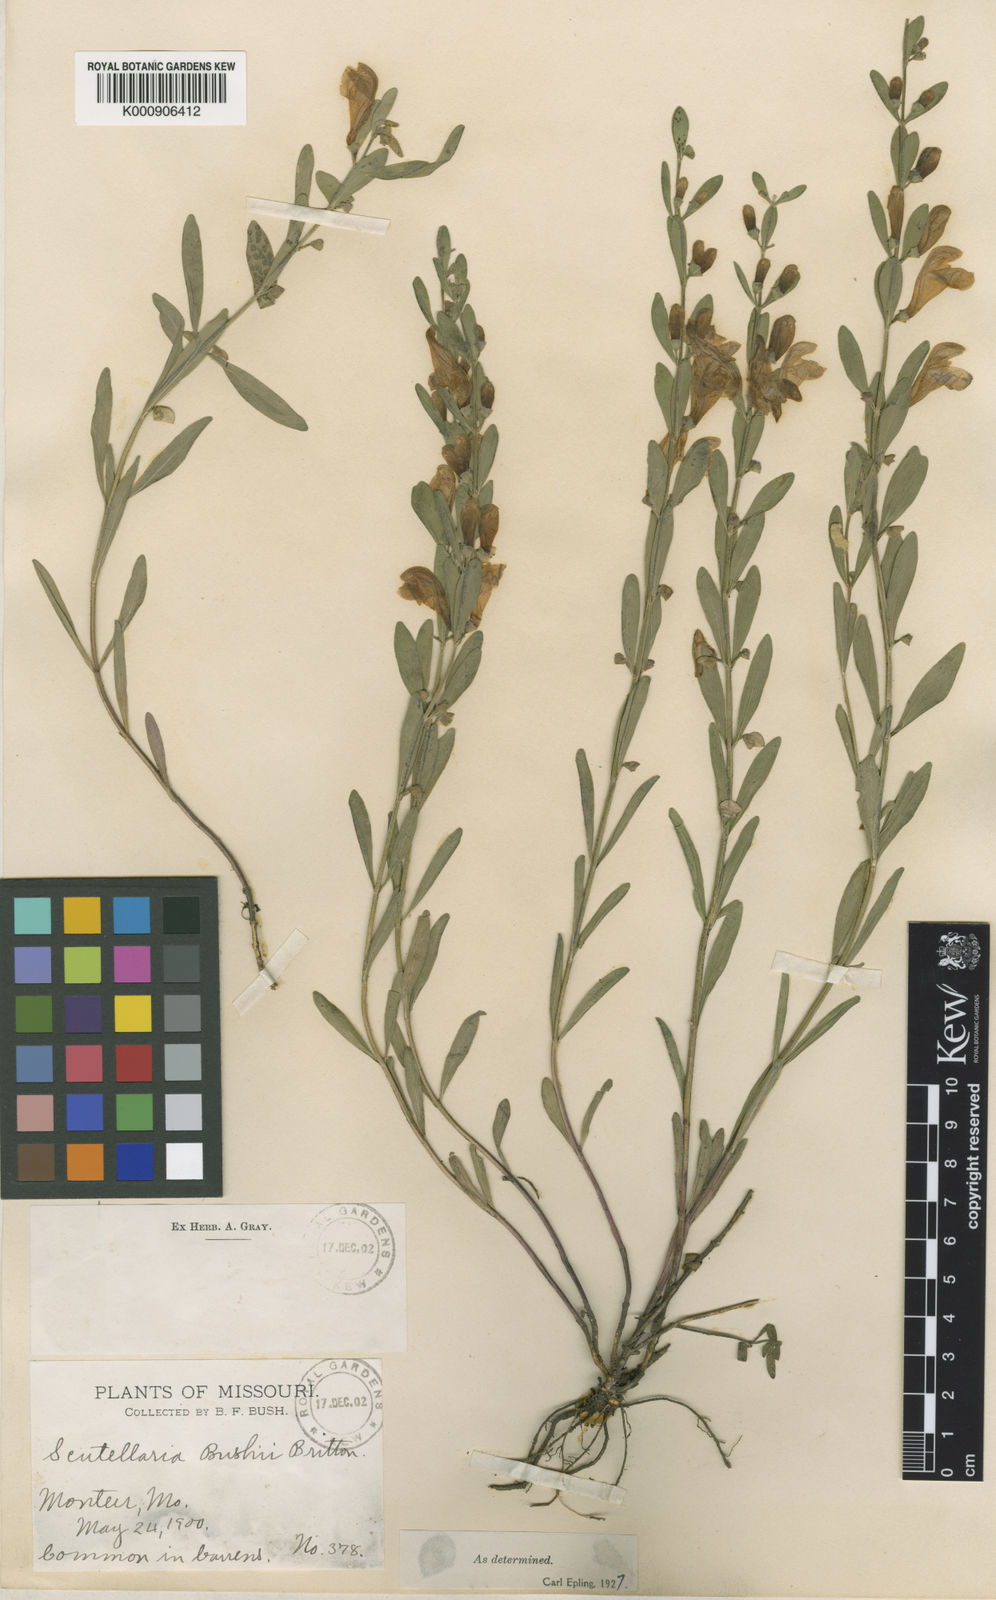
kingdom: Plantae
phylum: Tracheophyta
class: Magnoliopsida
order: Lamiales
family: Lamiaceae
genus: Scutellaria
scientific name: Scutellaria bushii
